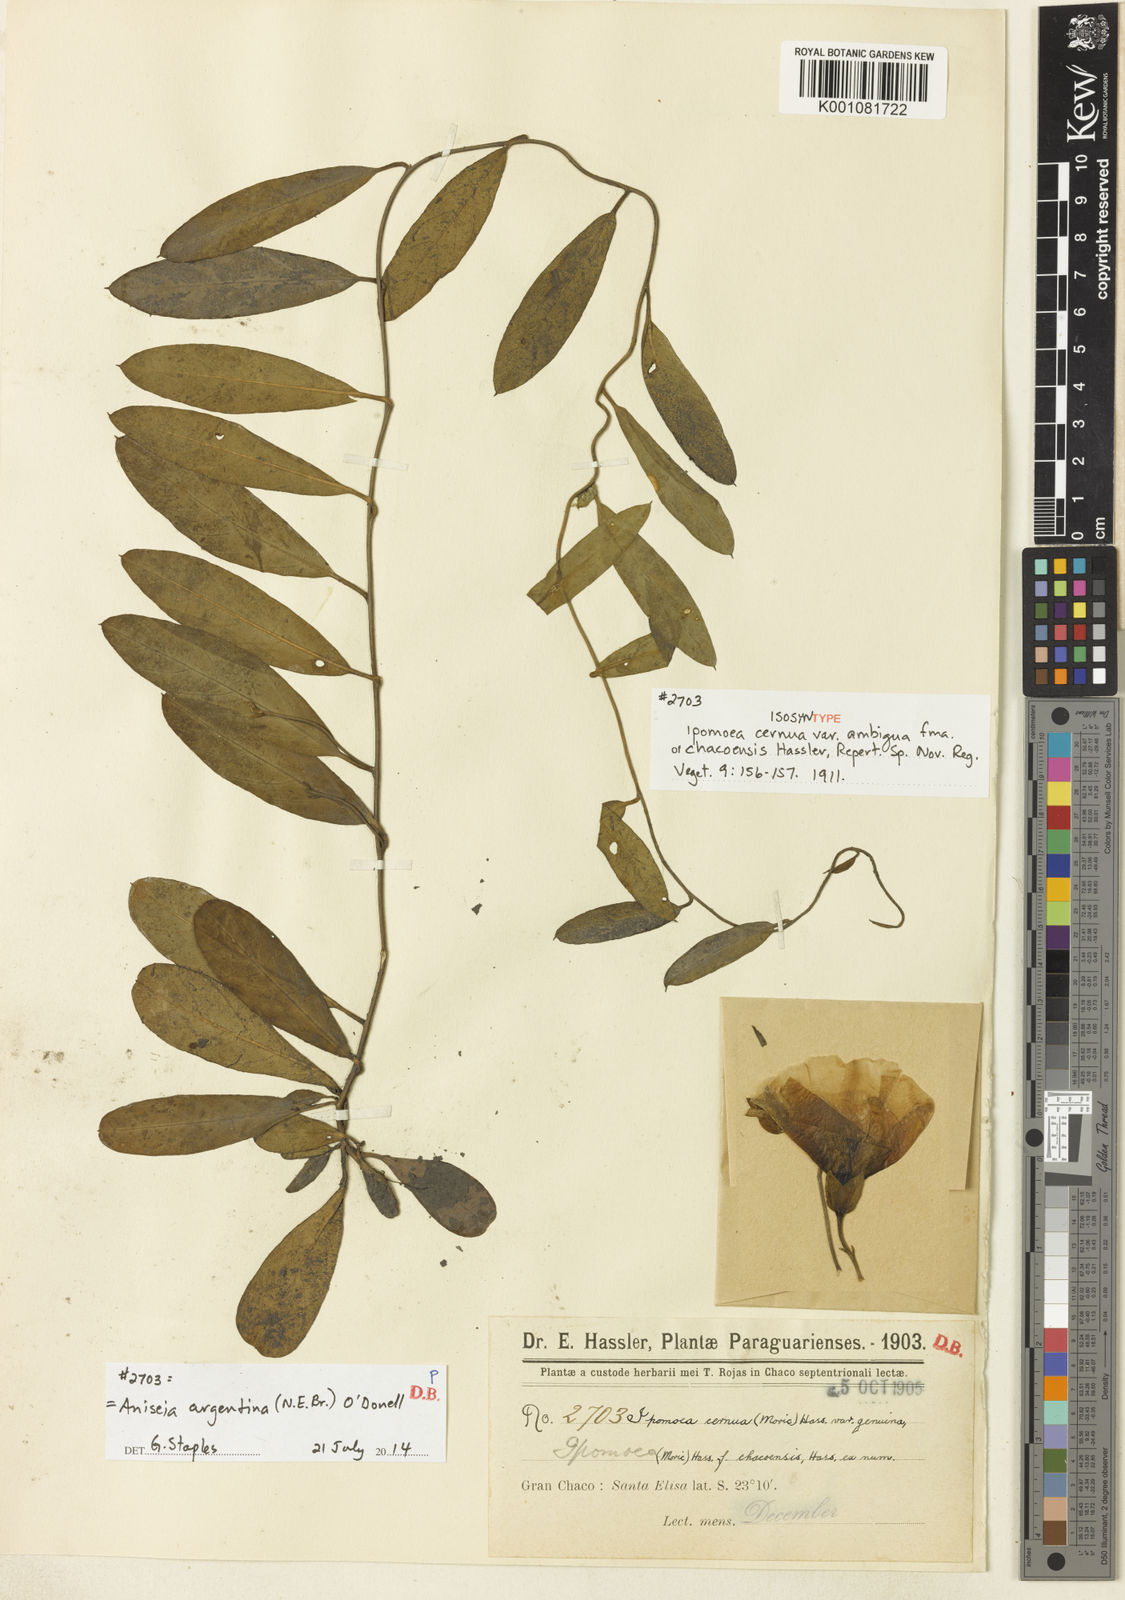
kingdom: Plantae
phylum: Tracheophyta
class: Magnoliopsida
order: Solanales
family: Convolvulaceae
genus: Aniseia
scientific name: Aniseia argentina
